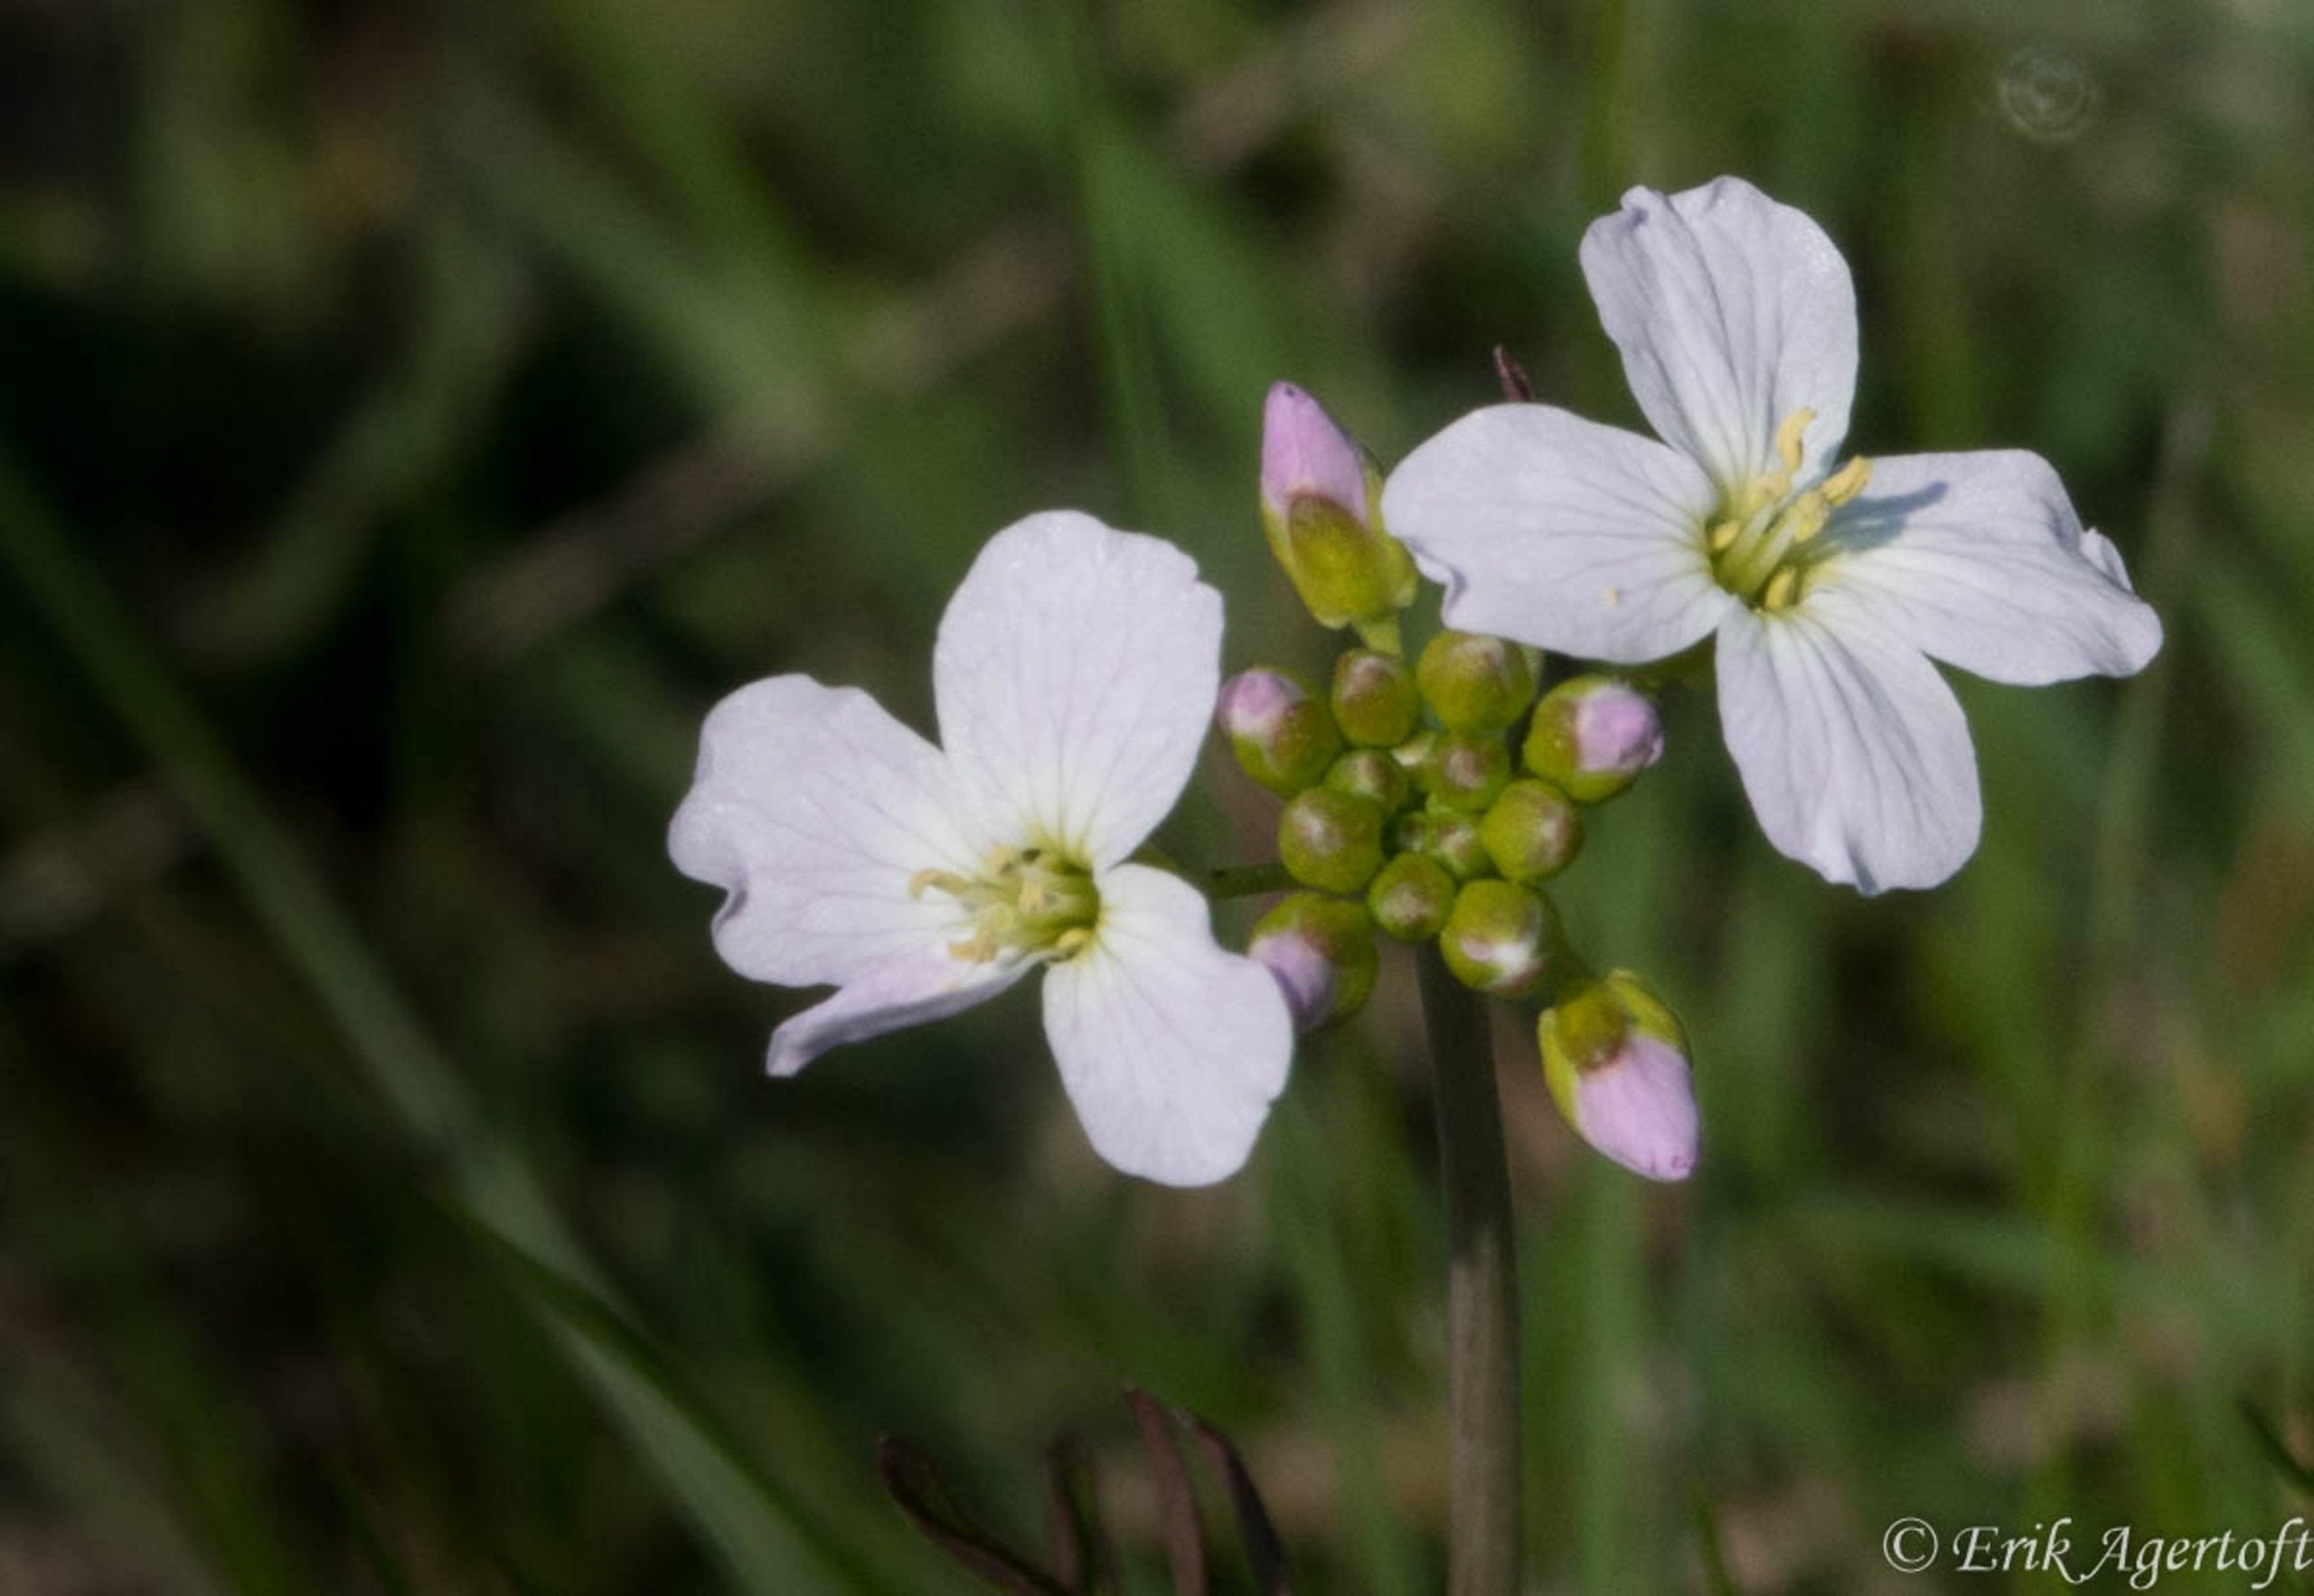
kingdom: Plantae
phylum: Tracheophyta
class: Magnoliopsida
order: Brassicales
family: Brassicaceae
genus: Cardamine
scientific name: Cardamine pratensis
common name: Engkarse
